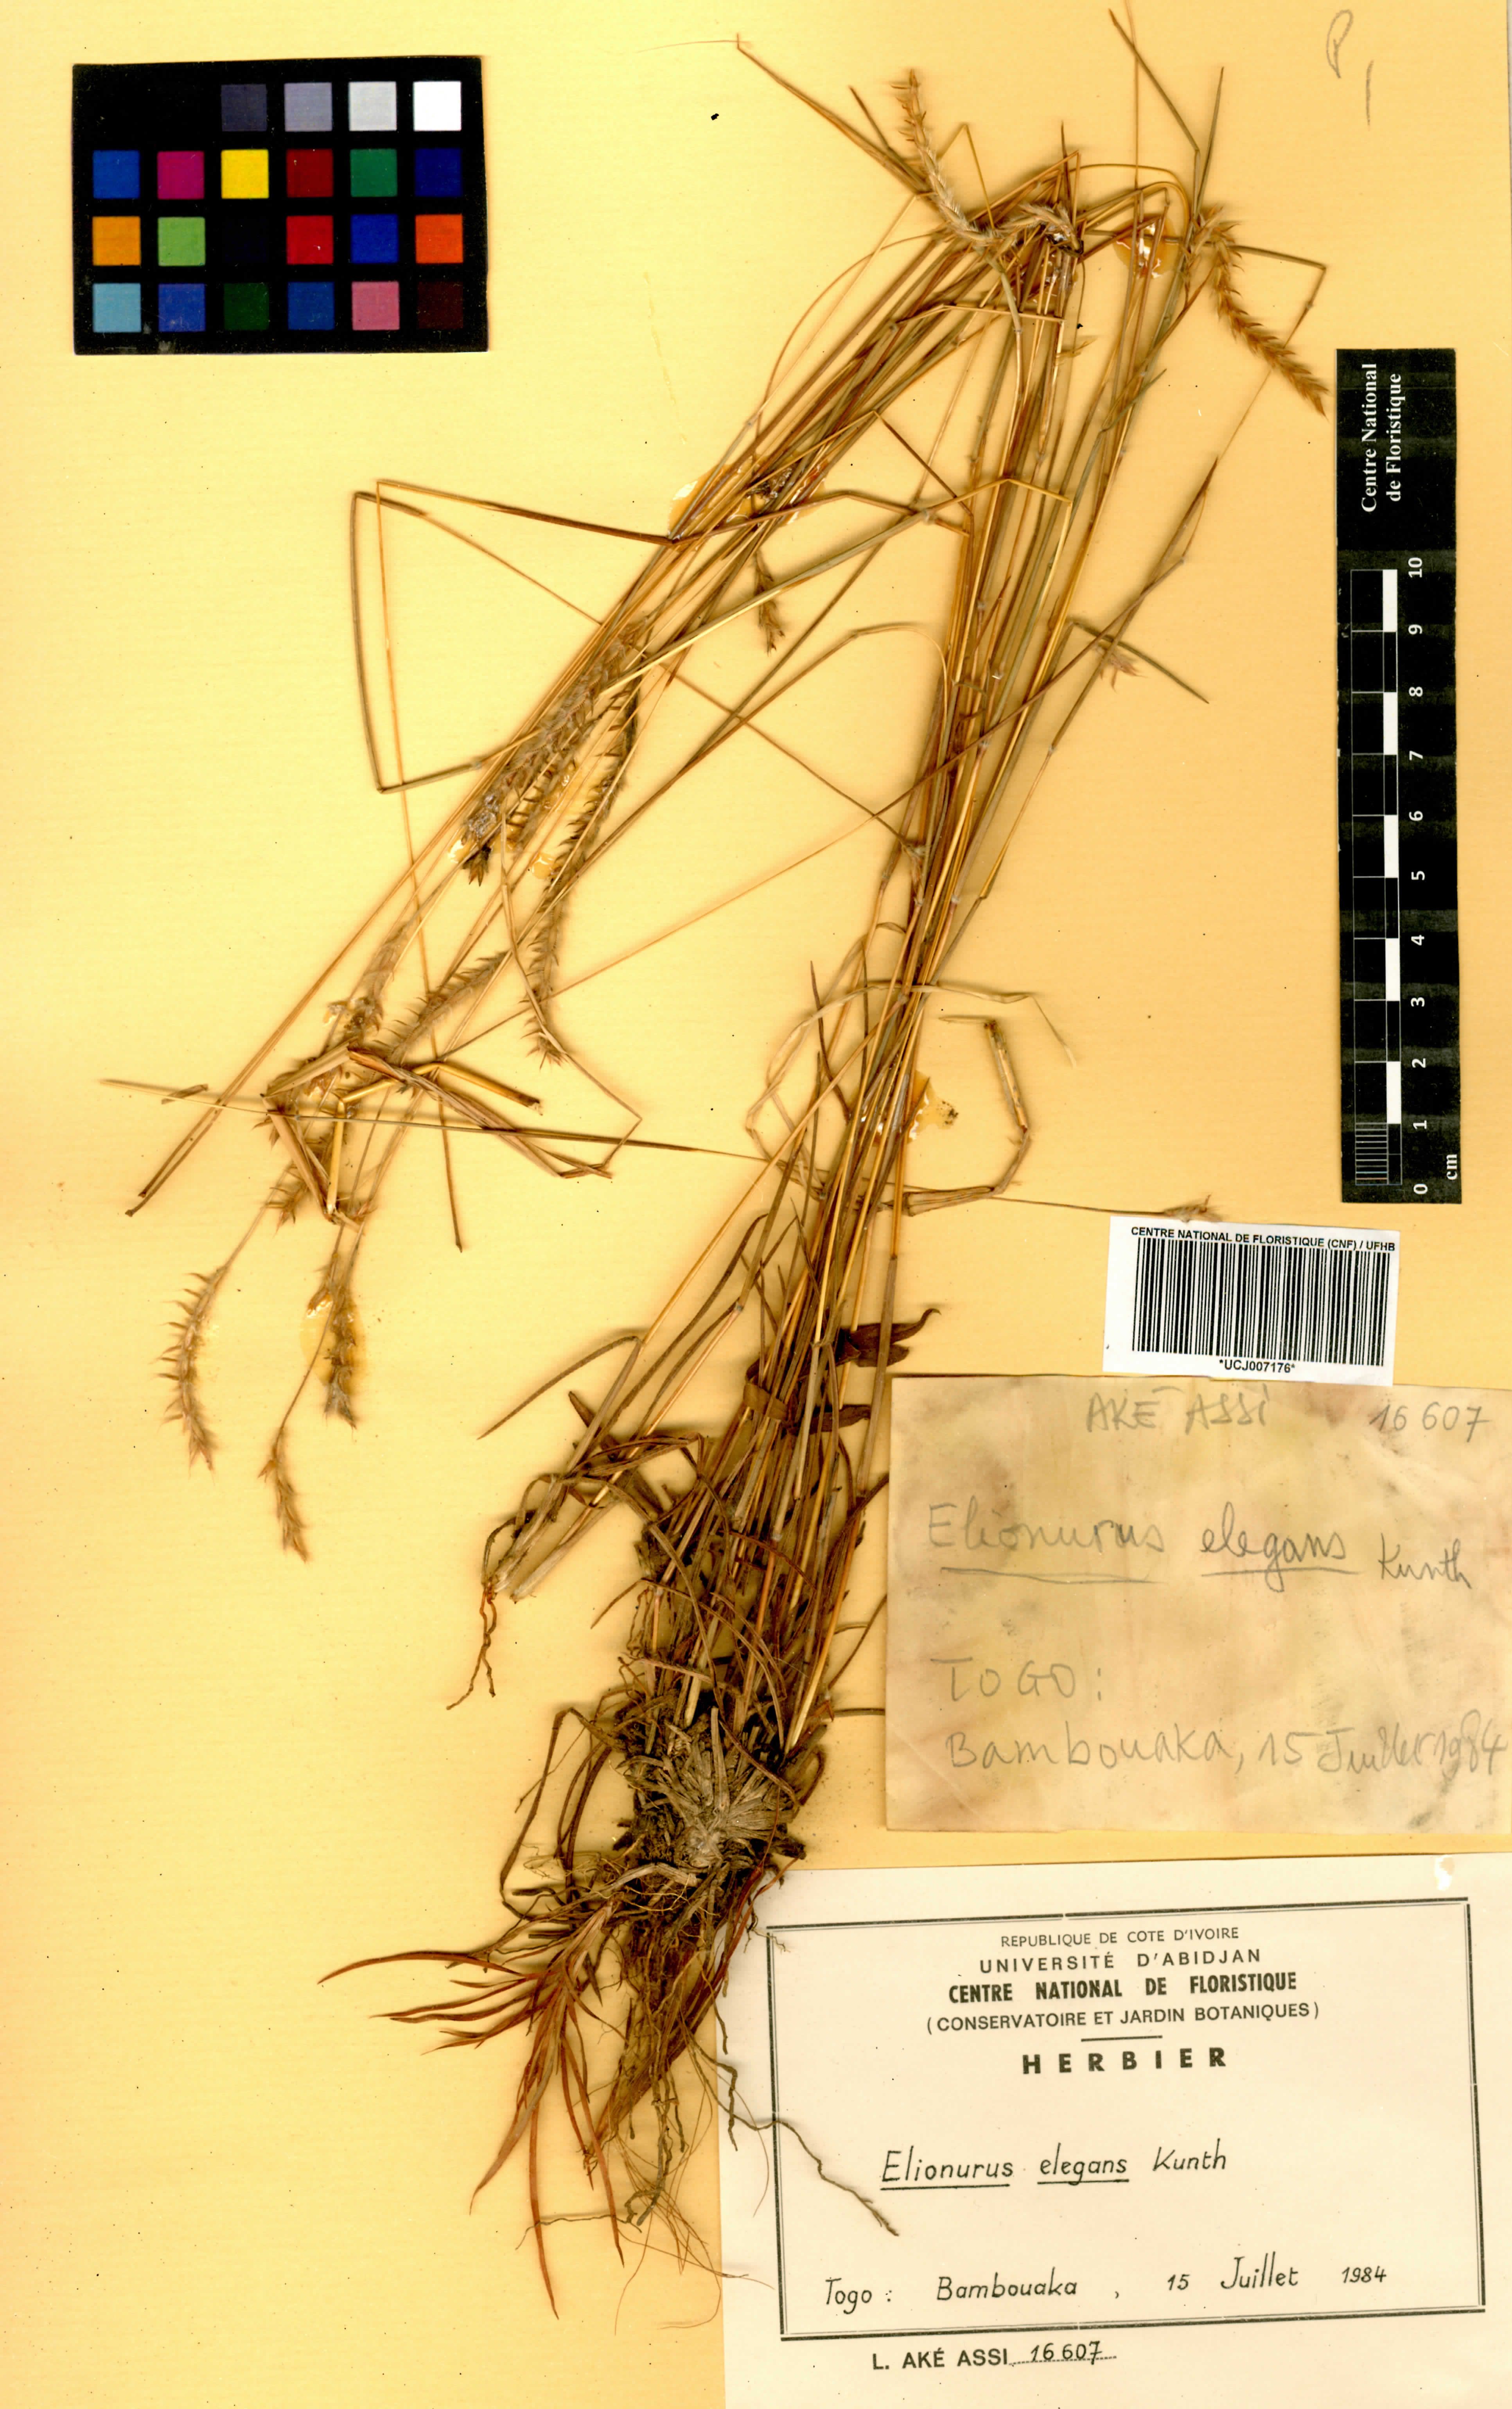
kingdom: Plantae
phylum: Tracheophyta
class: Liliopsida
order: Poales
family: Poaceae
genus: Elionurus
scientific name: Elionurus elegans
